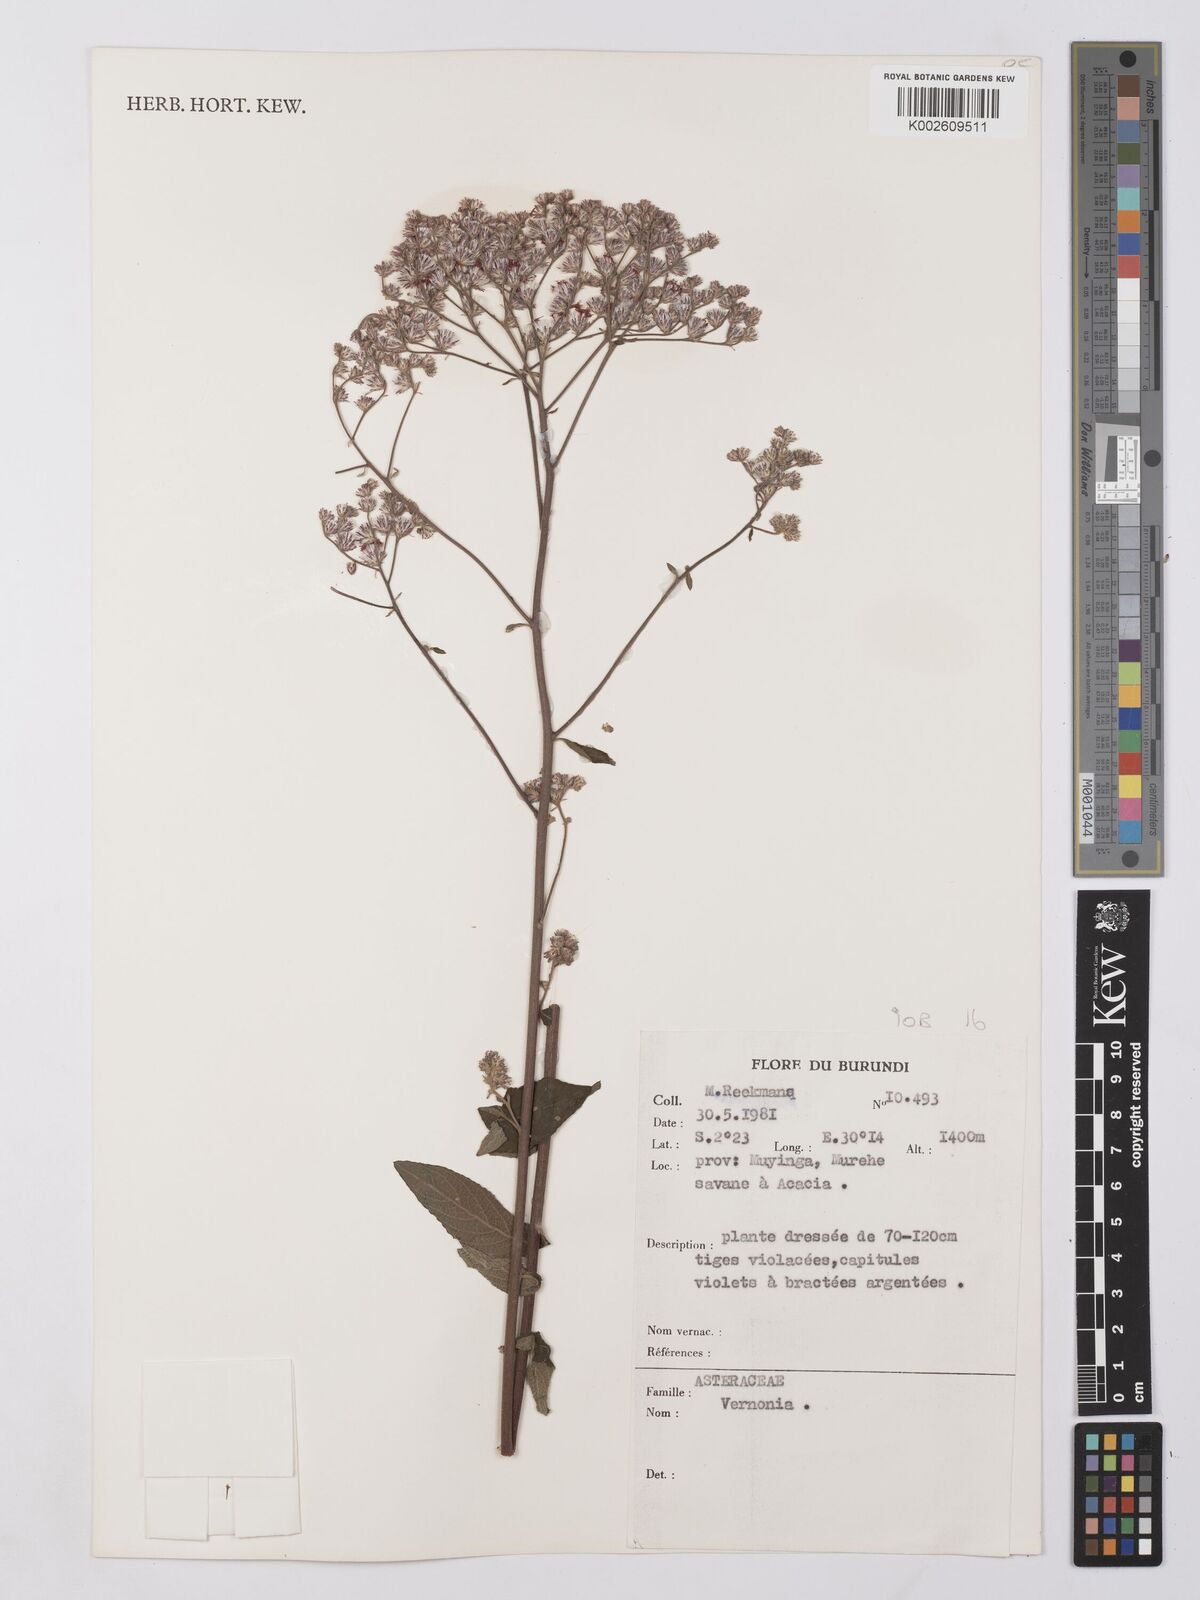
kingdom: Plantae
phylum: Tracheophyta
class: Magnoliopsida
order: Asterales
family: Asteraceae
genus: Vernonia
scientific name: Vernonia
